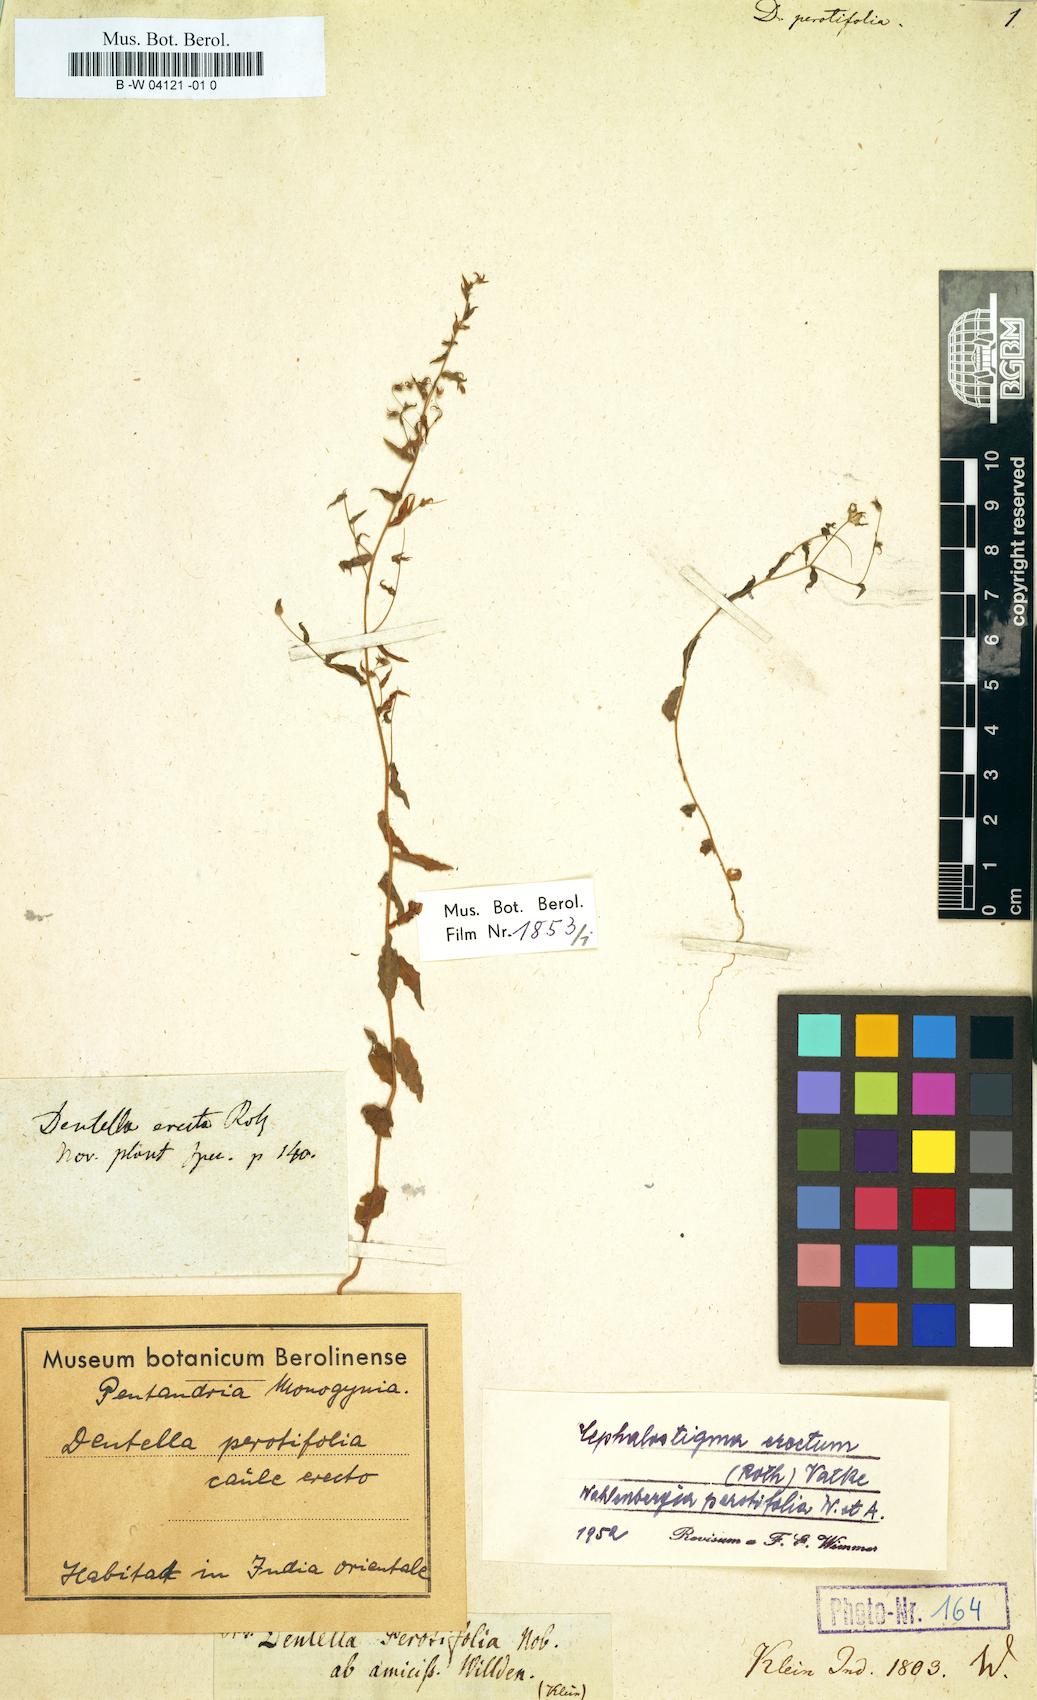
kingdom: Plantae
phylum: Tracheophyta
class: Magnoliopsida
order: Asterales
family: Campanulaceae
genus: Wahlenbergia
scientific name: Wahlenbergia erecta
